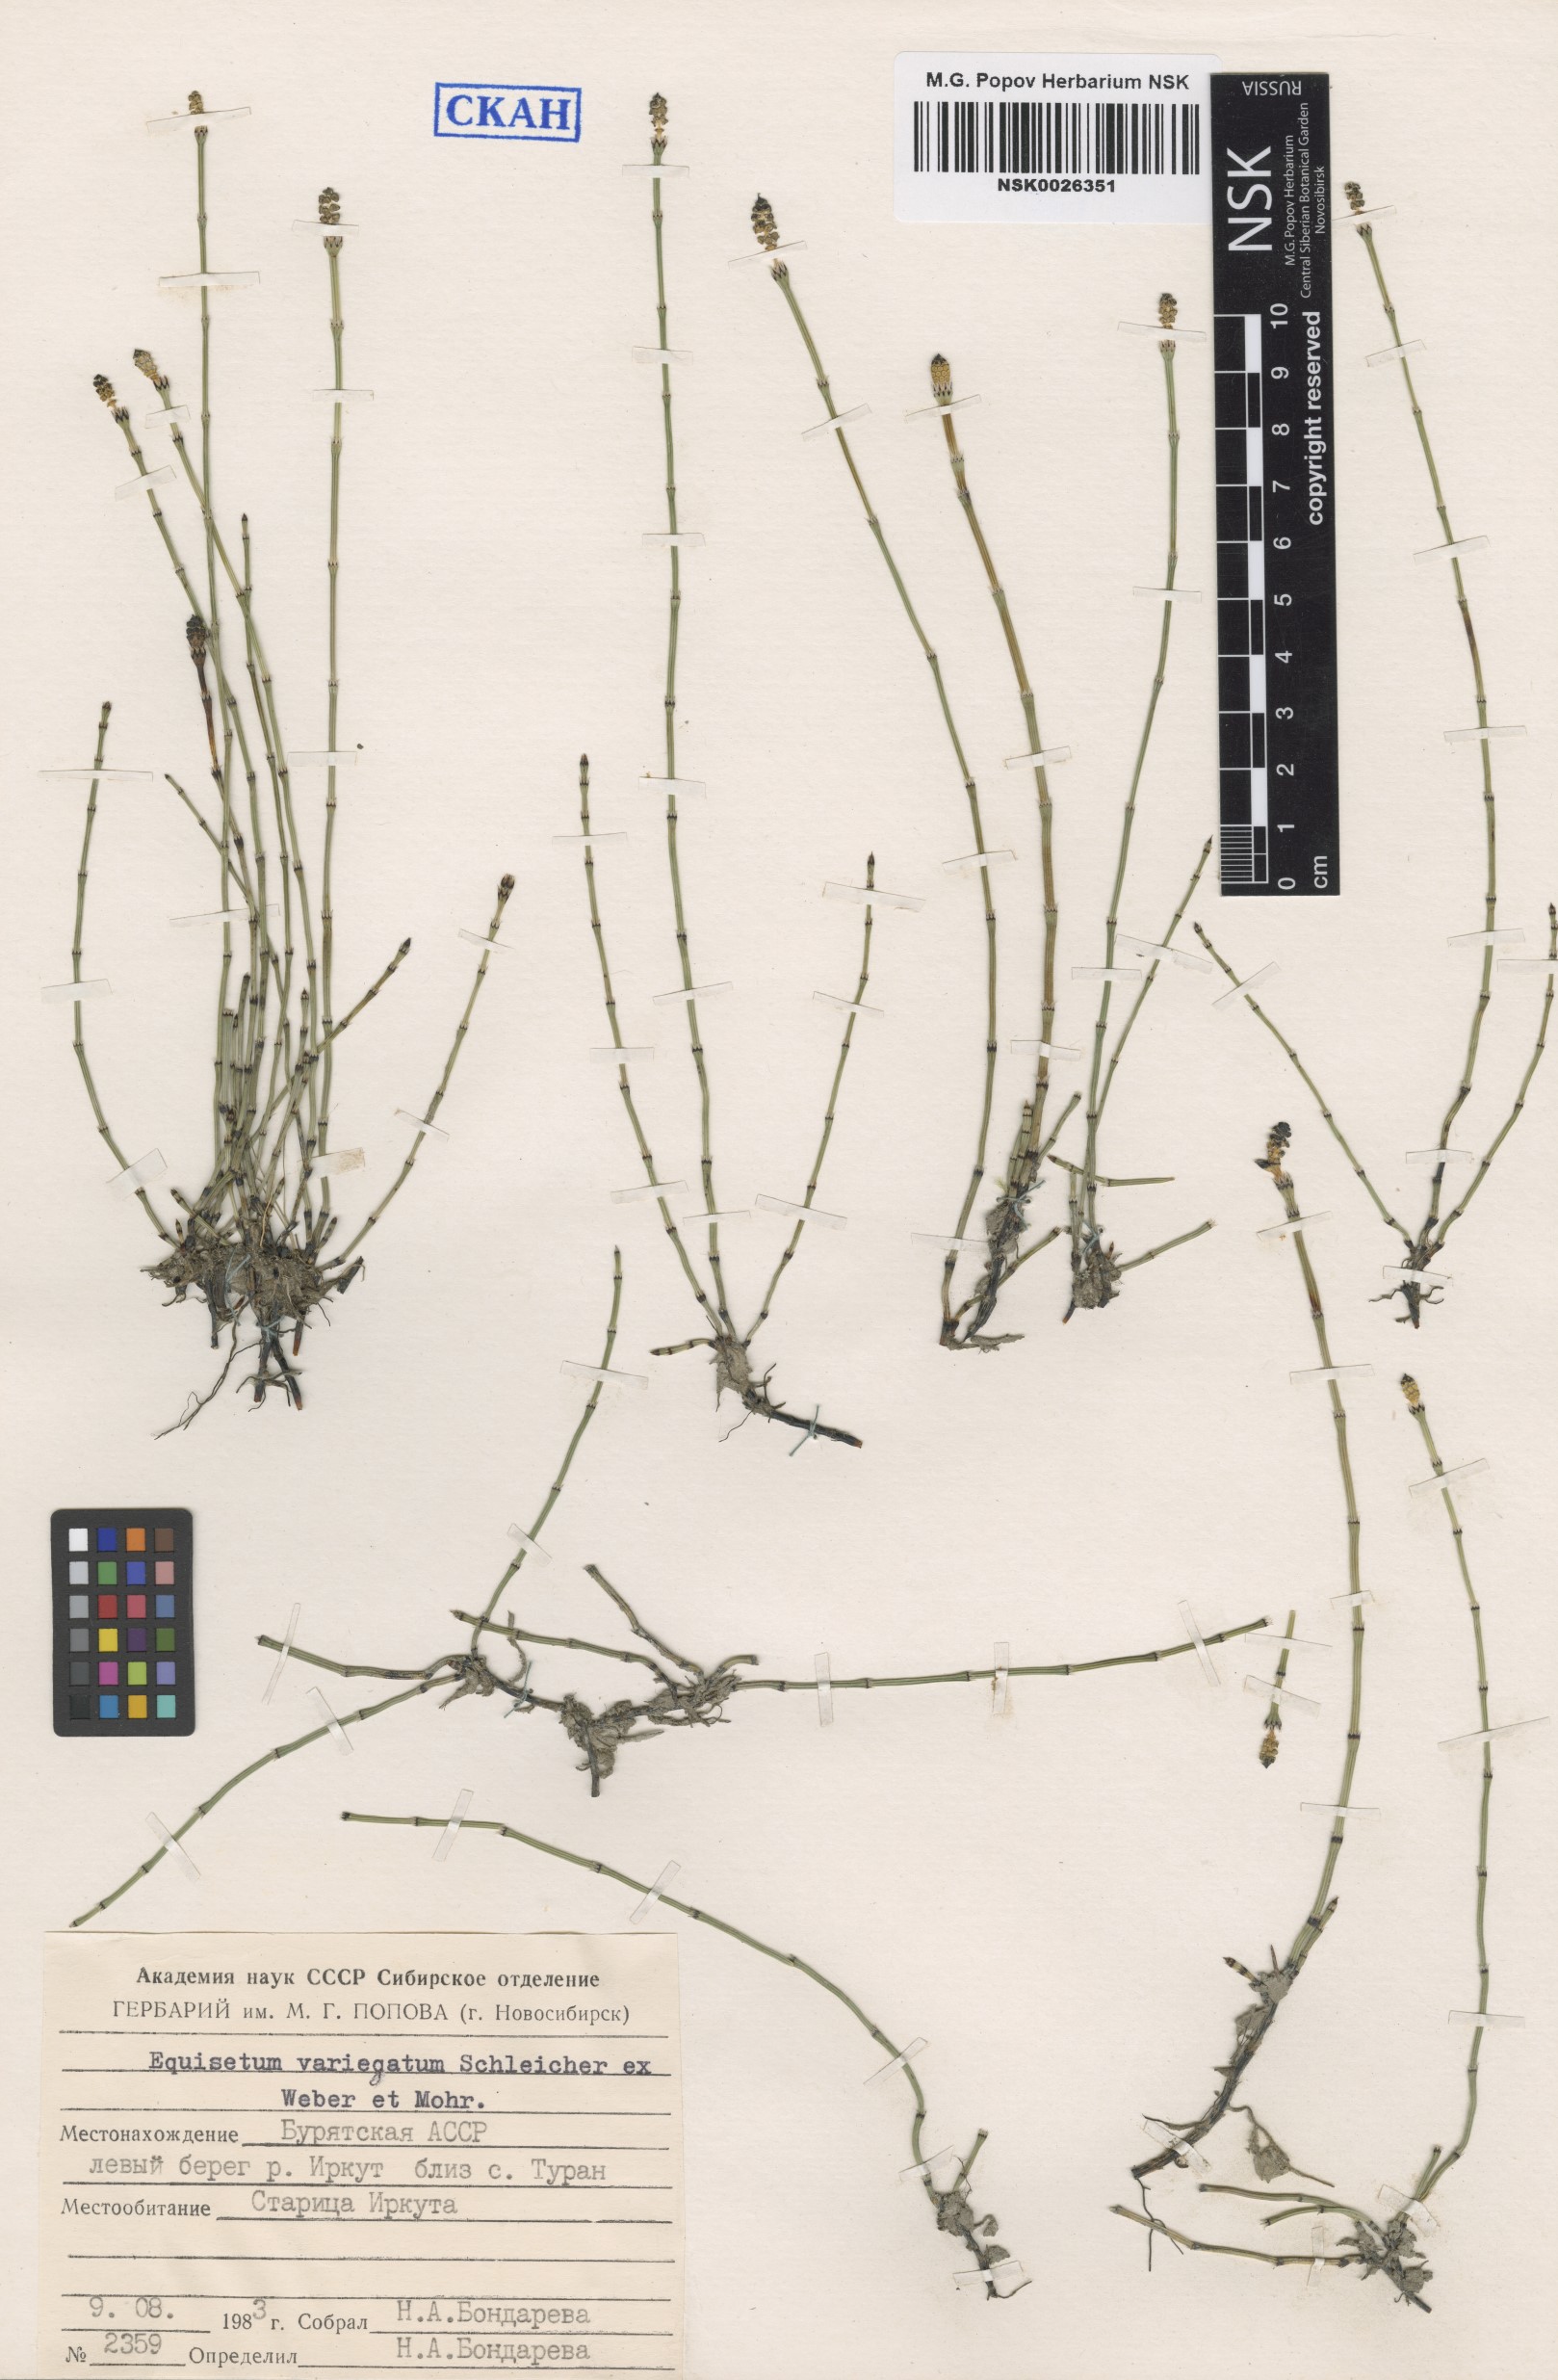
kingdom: Plantae
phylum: Tracheophyta
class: Polypodiopsida
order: Equisetales
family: Equisetaceae
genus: Equisetum
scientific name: Equisetum variegatum
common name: Variegated horsetail
